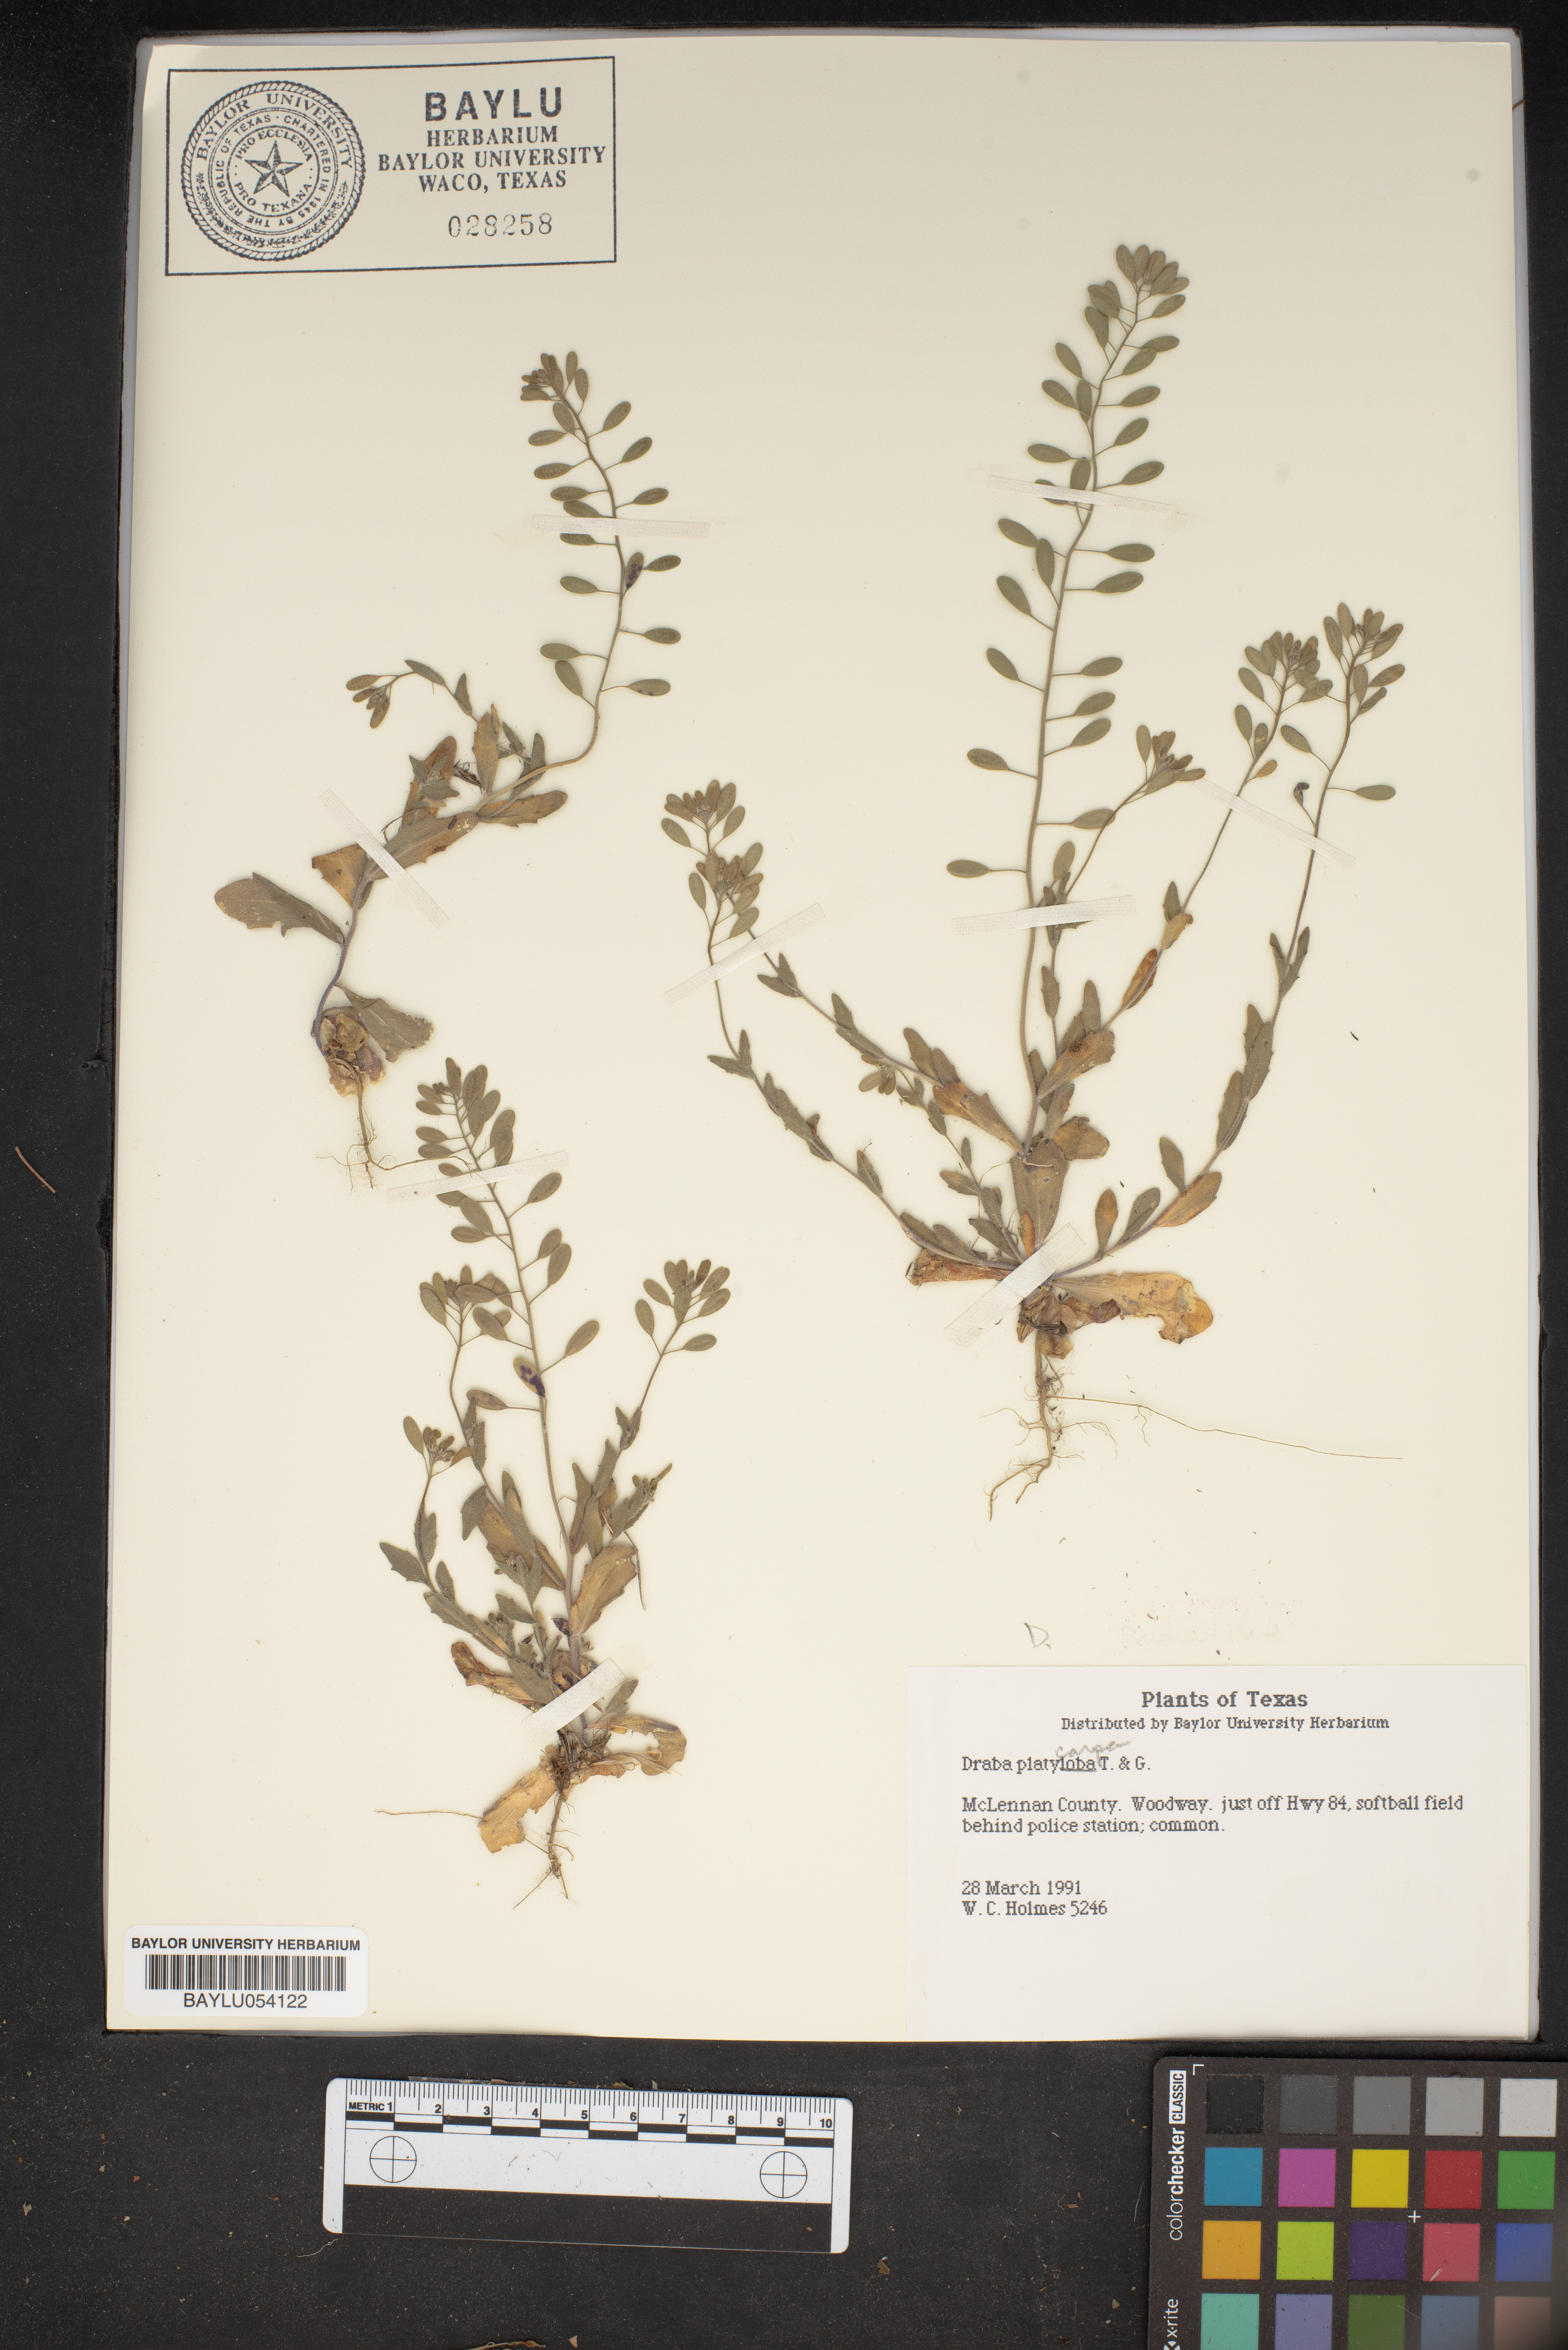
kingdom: Plantae
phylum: Tracheophyta
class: Magnoliopsida
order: Brassicales
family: Brassicaceae
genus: Tomostima
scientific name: Tomostima platycarpa
